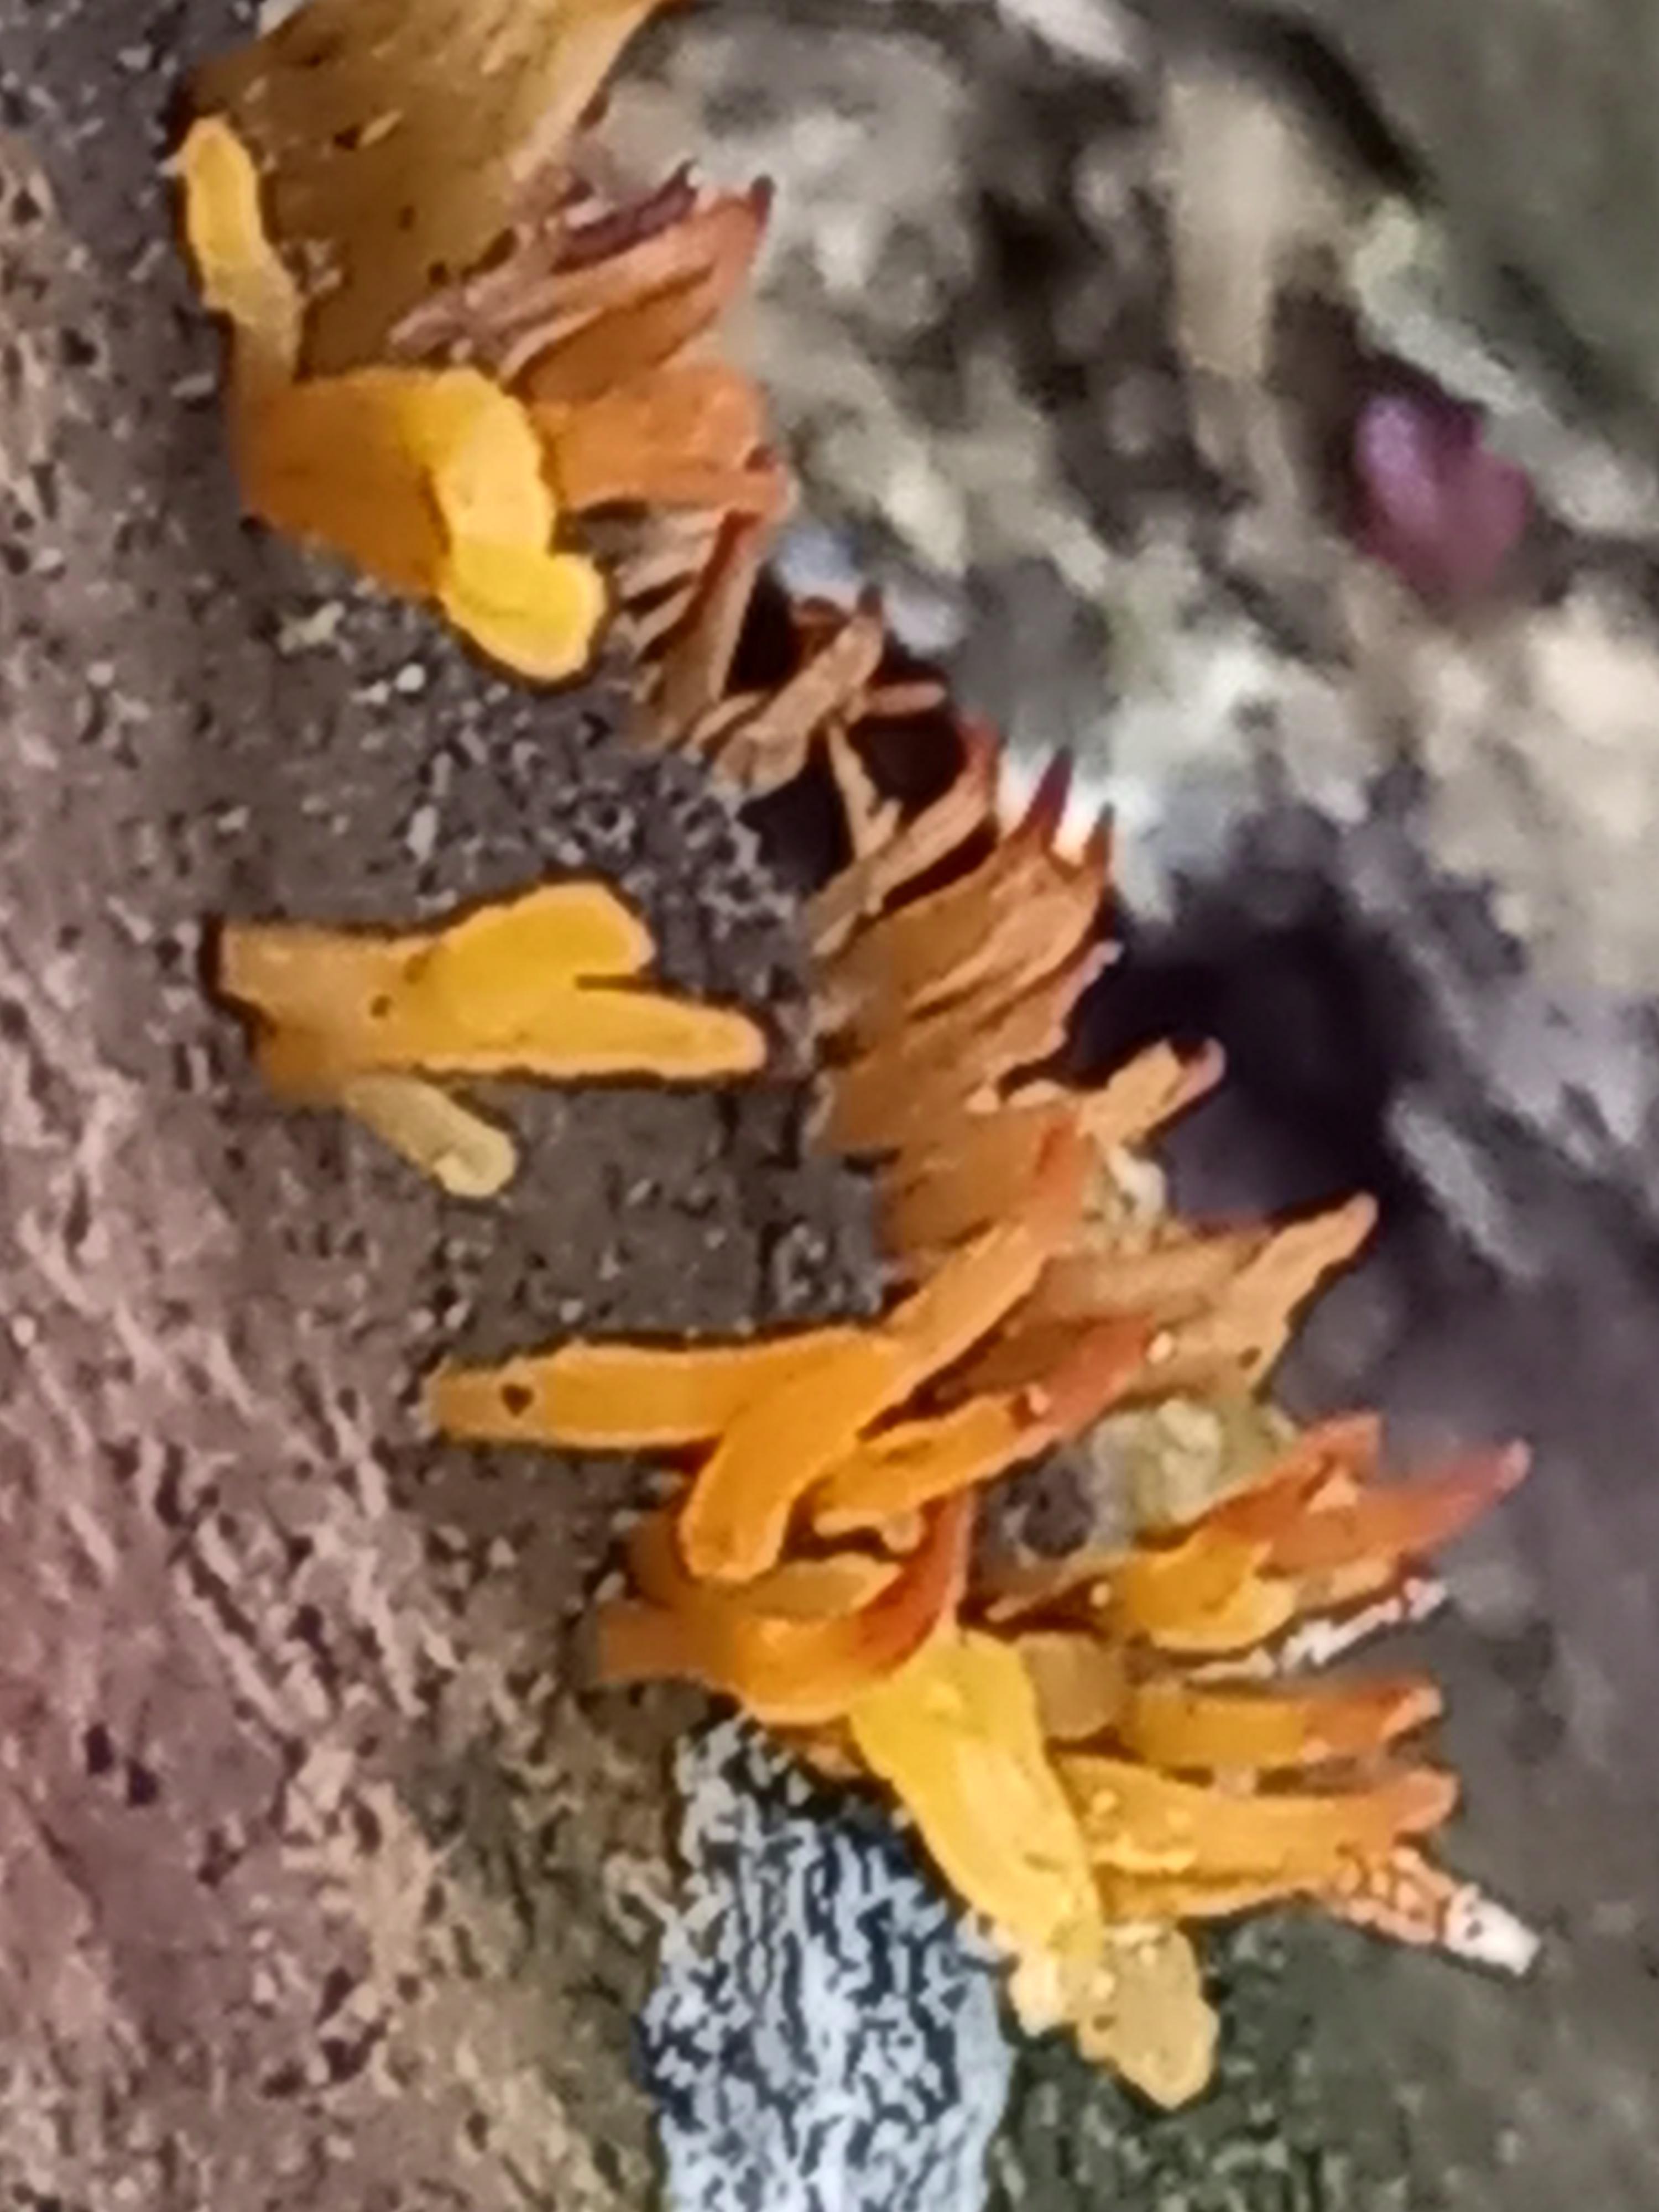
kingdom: Fungi
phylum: Basidiomycota
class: Dacrymycetes
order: Dacrymycetales
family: Dacrymycetaceae
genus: Calocera
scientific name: Calocera cornea
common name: liden guldgaffel
